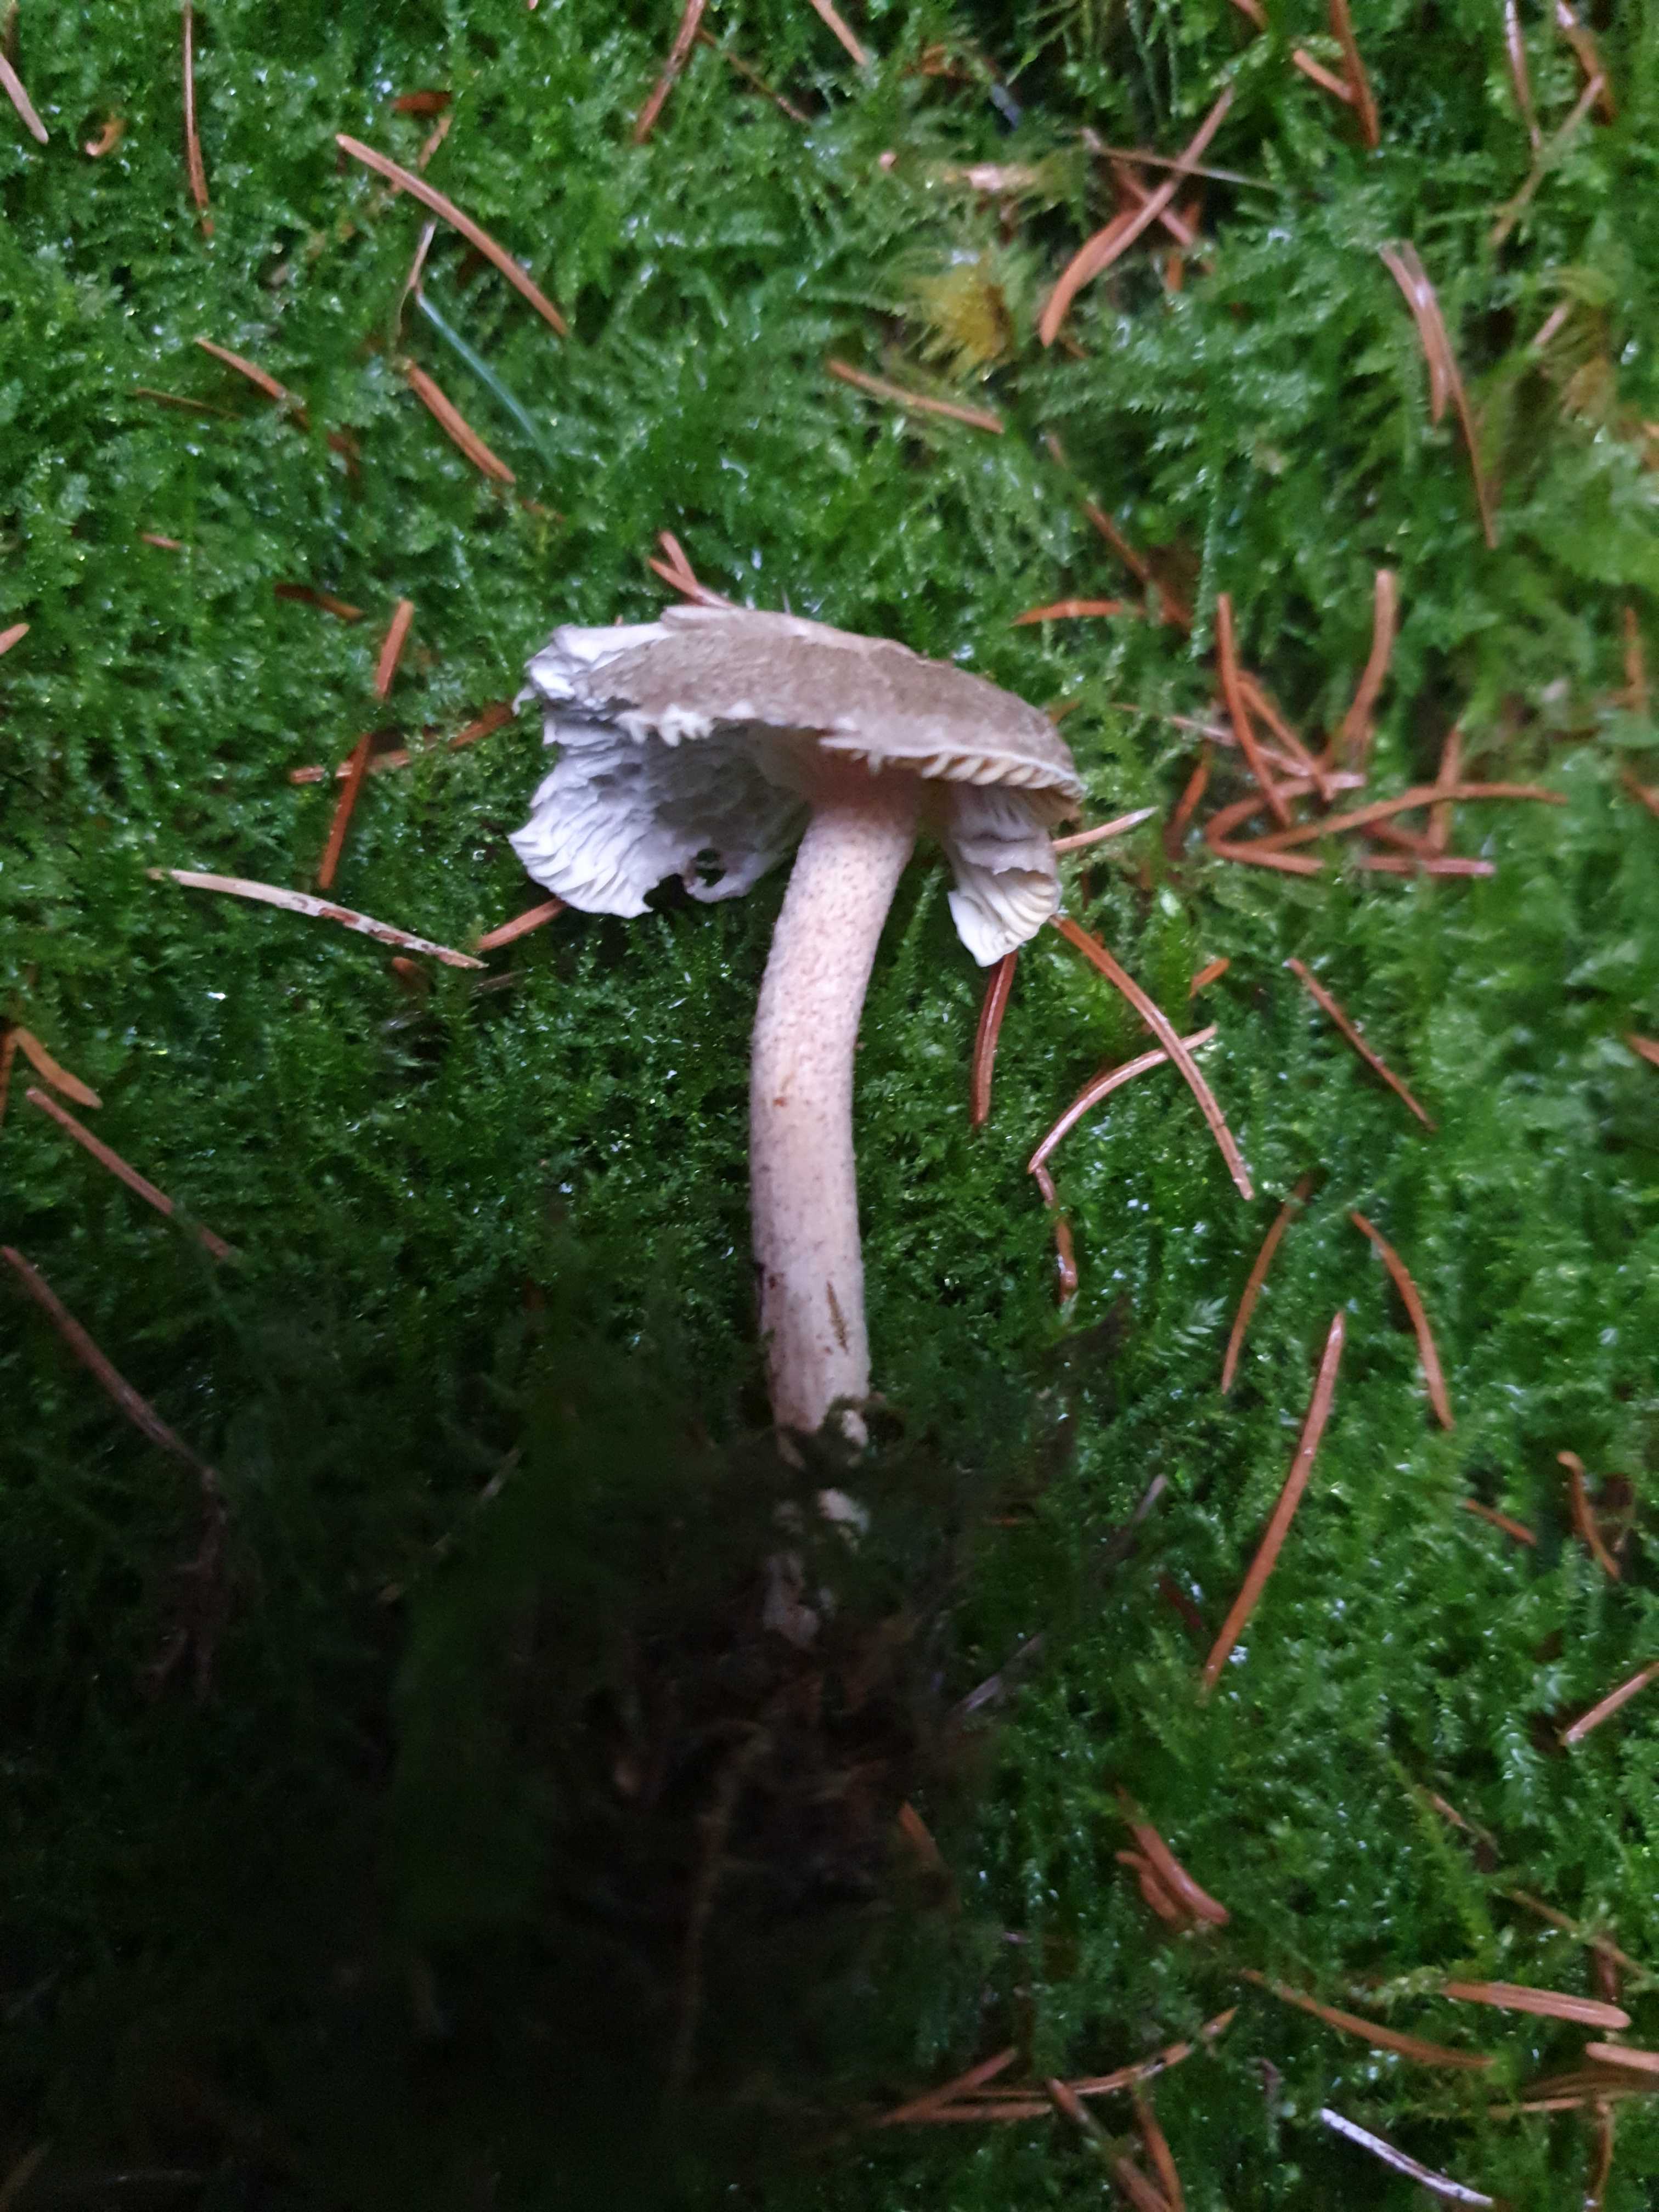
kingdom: Fungi
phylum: Basidiomycota
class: Agaricomycetes
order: Agaricales
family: Hygrophoraceae
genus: Hygrophorus
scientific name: Hygrophorus pustulatus
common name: mørkprikket sneglehat
